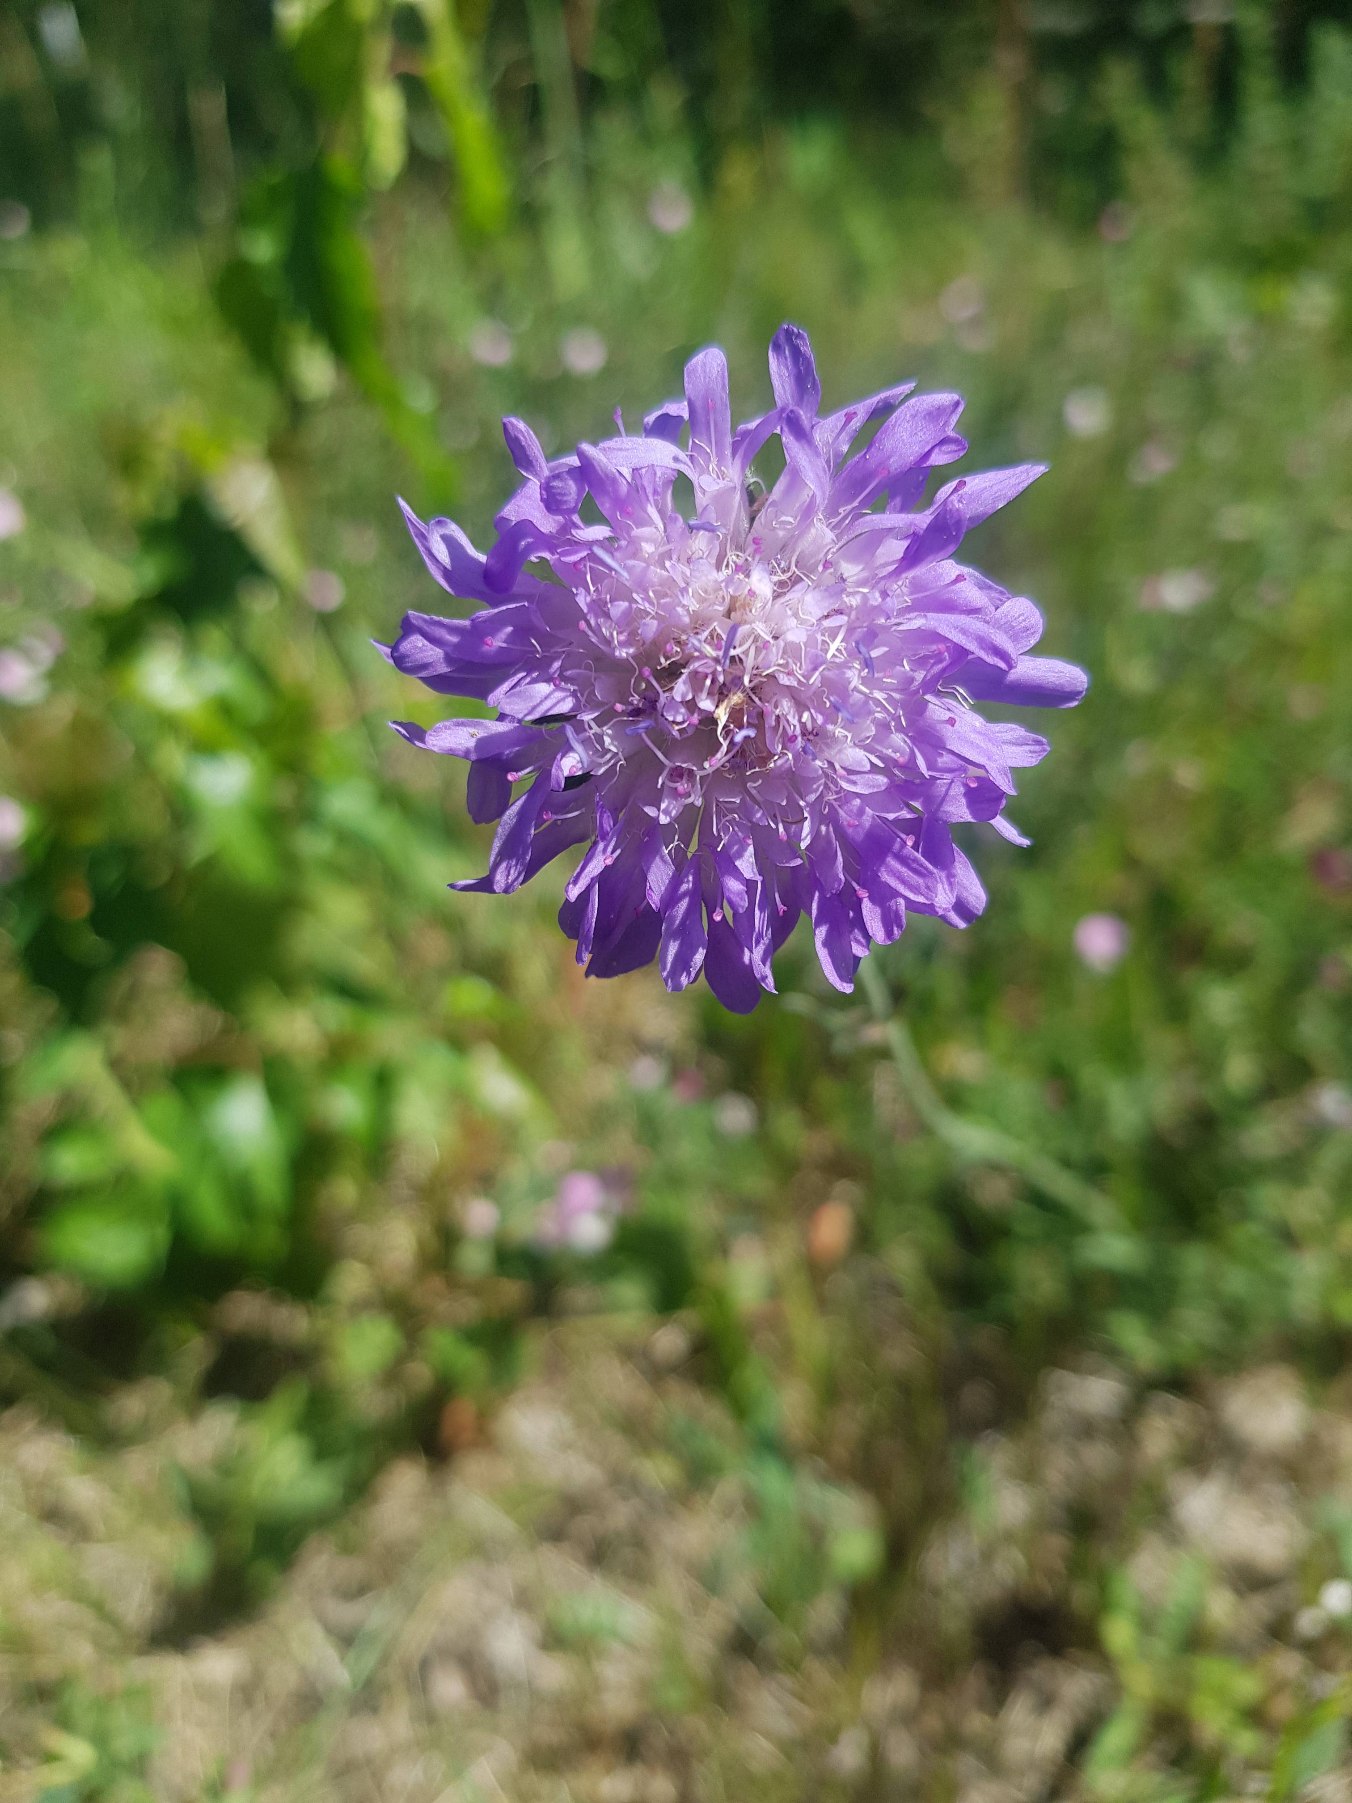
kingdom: Plantae
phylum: Tracheophyta
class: Magnoliopsida
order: Dipsacales
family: Caprifoliaceae
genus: Knautia
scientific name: Knautia arvensis
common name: Blåhat
